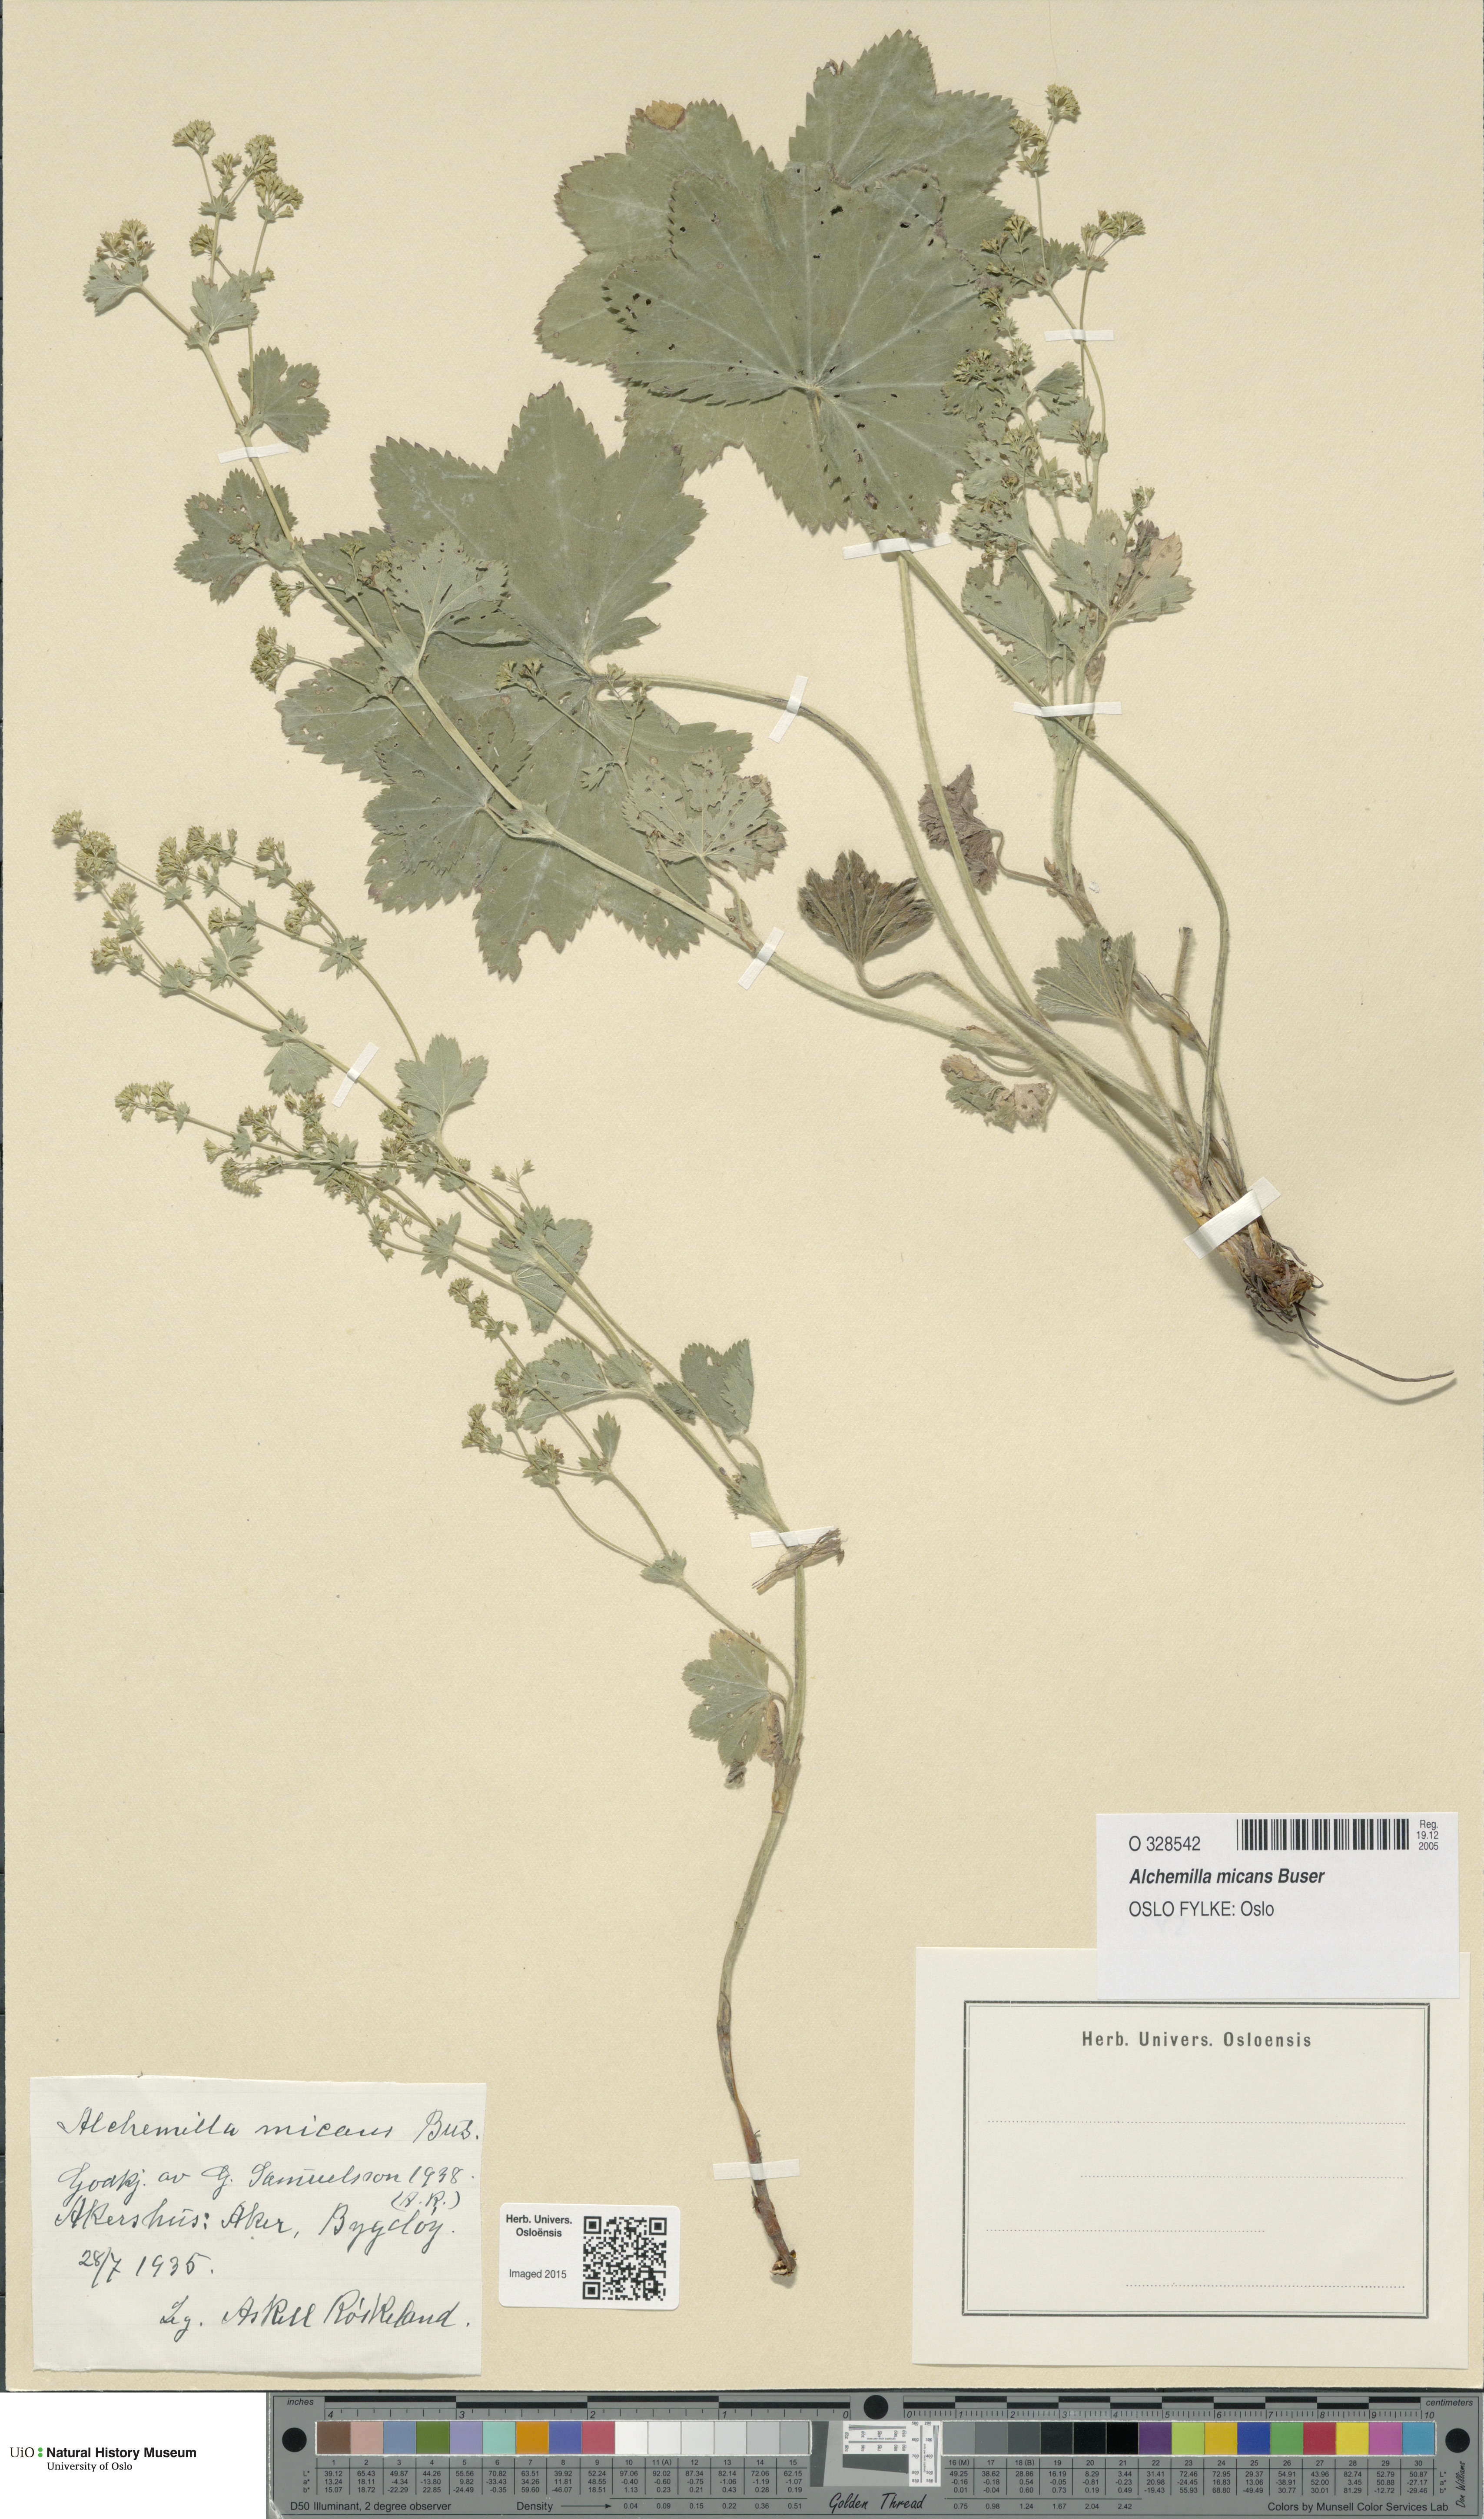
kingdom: Plantae
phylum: Tracheophyta
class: Magnoliopsida
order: Rosales
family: Rosaceae
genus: Alchemilla
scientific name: Alchemilla micans
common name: Gleaming lady's mantle
